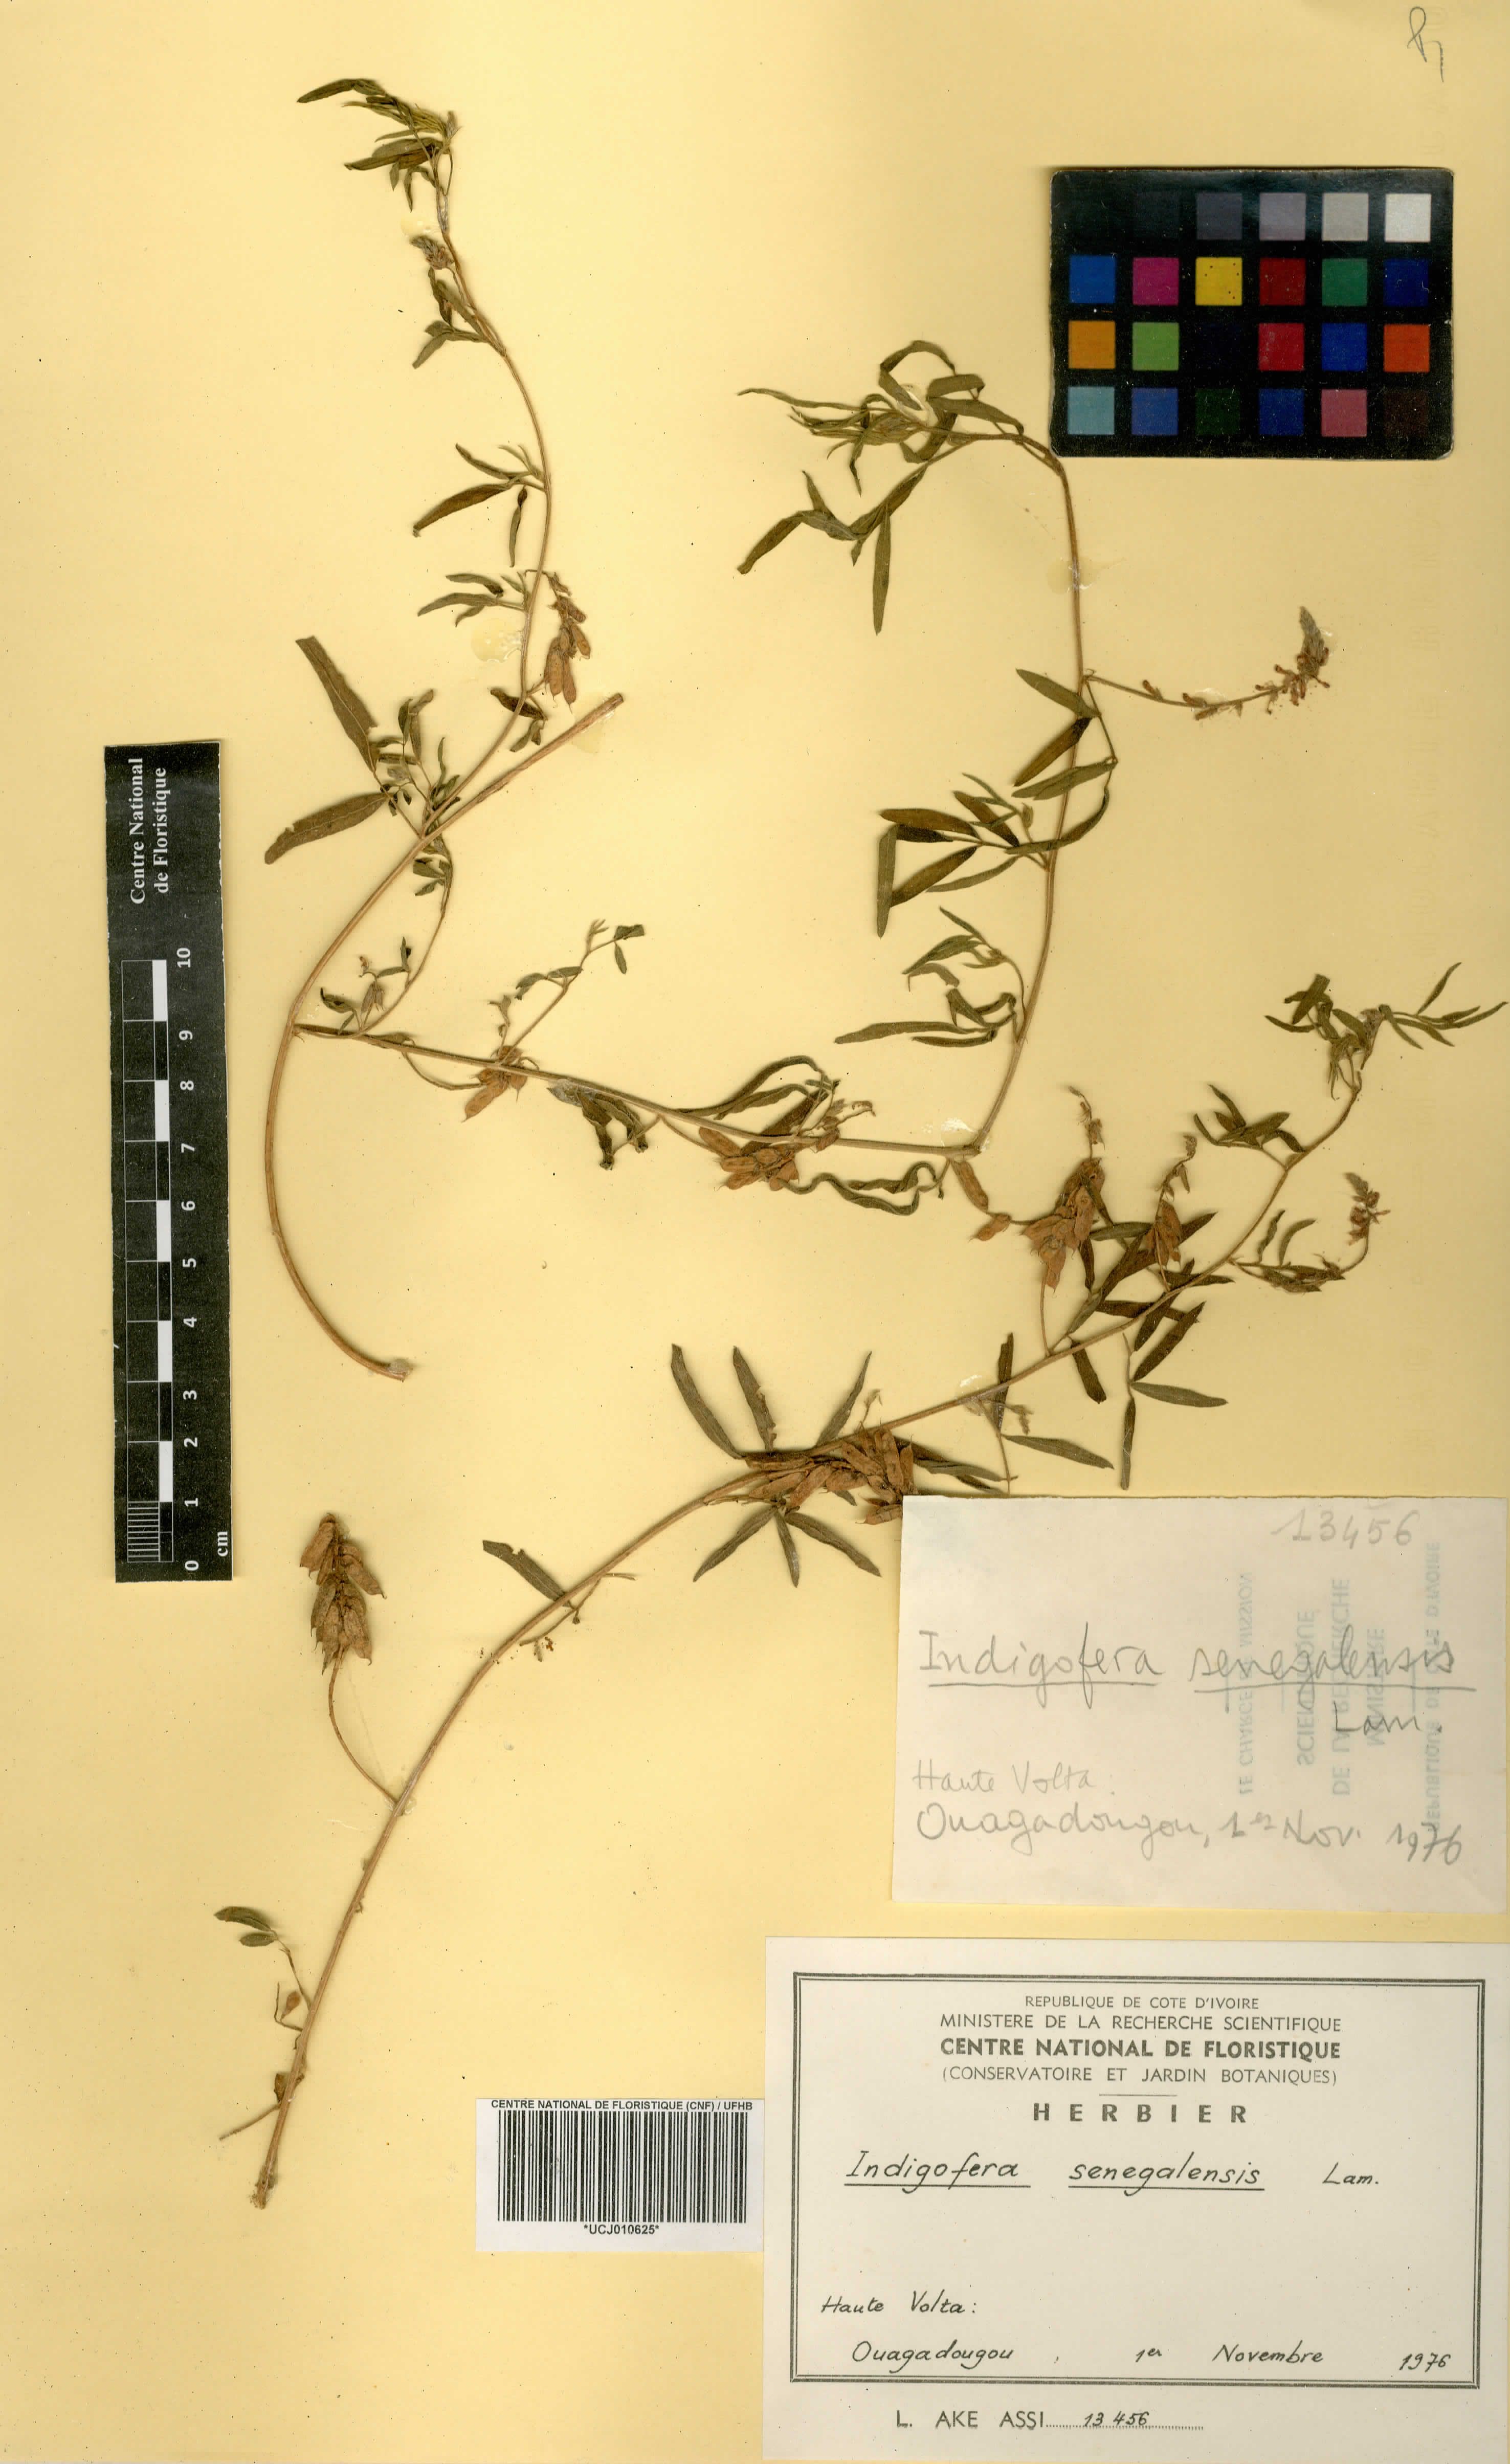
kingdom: Plantae
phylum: Tracheophyta
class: Magnoliopsida
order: Fabales
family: Fabaceae
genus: Indigofera
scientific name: Indigofera suffruticosa
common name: Anil de pasto
